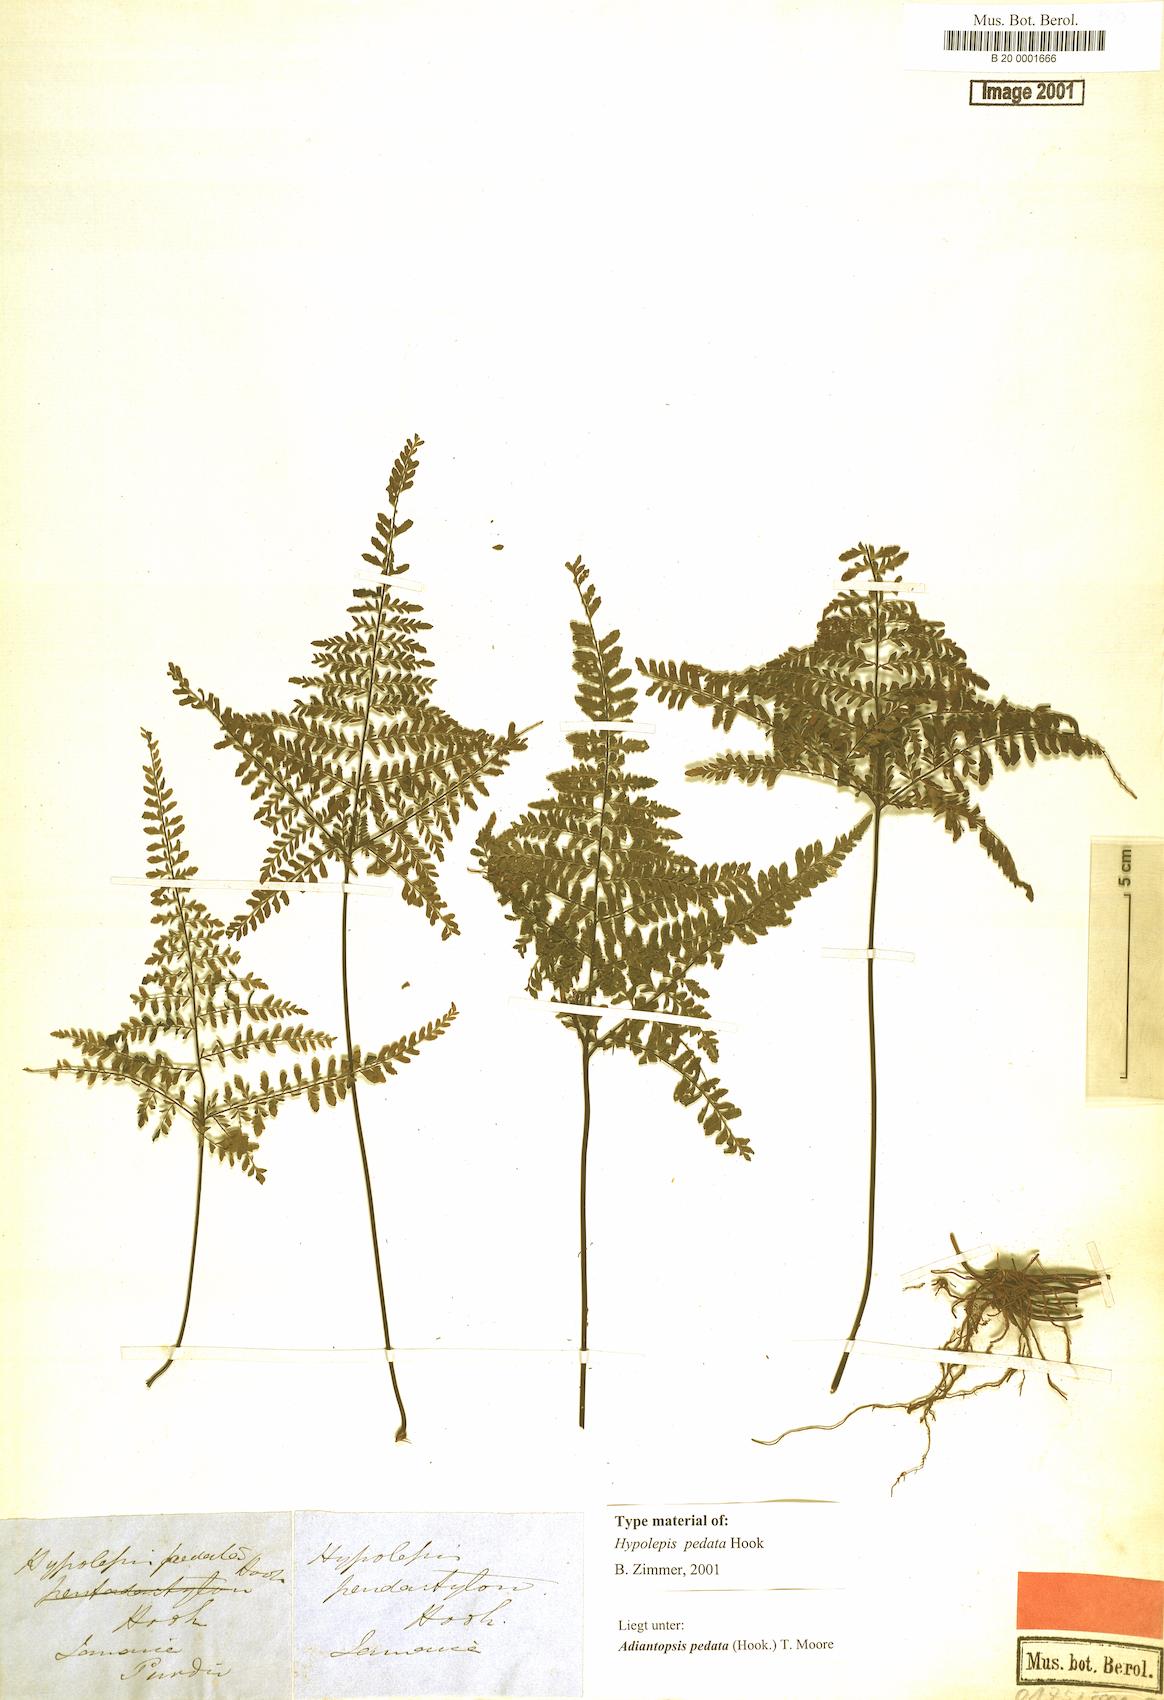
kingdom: Plantae
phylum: Tracheophyta
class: Polypodiopsida
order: Polypodiales
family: Pteridaceae
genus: Adiantopsis
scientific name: Adiantopsis pedata
